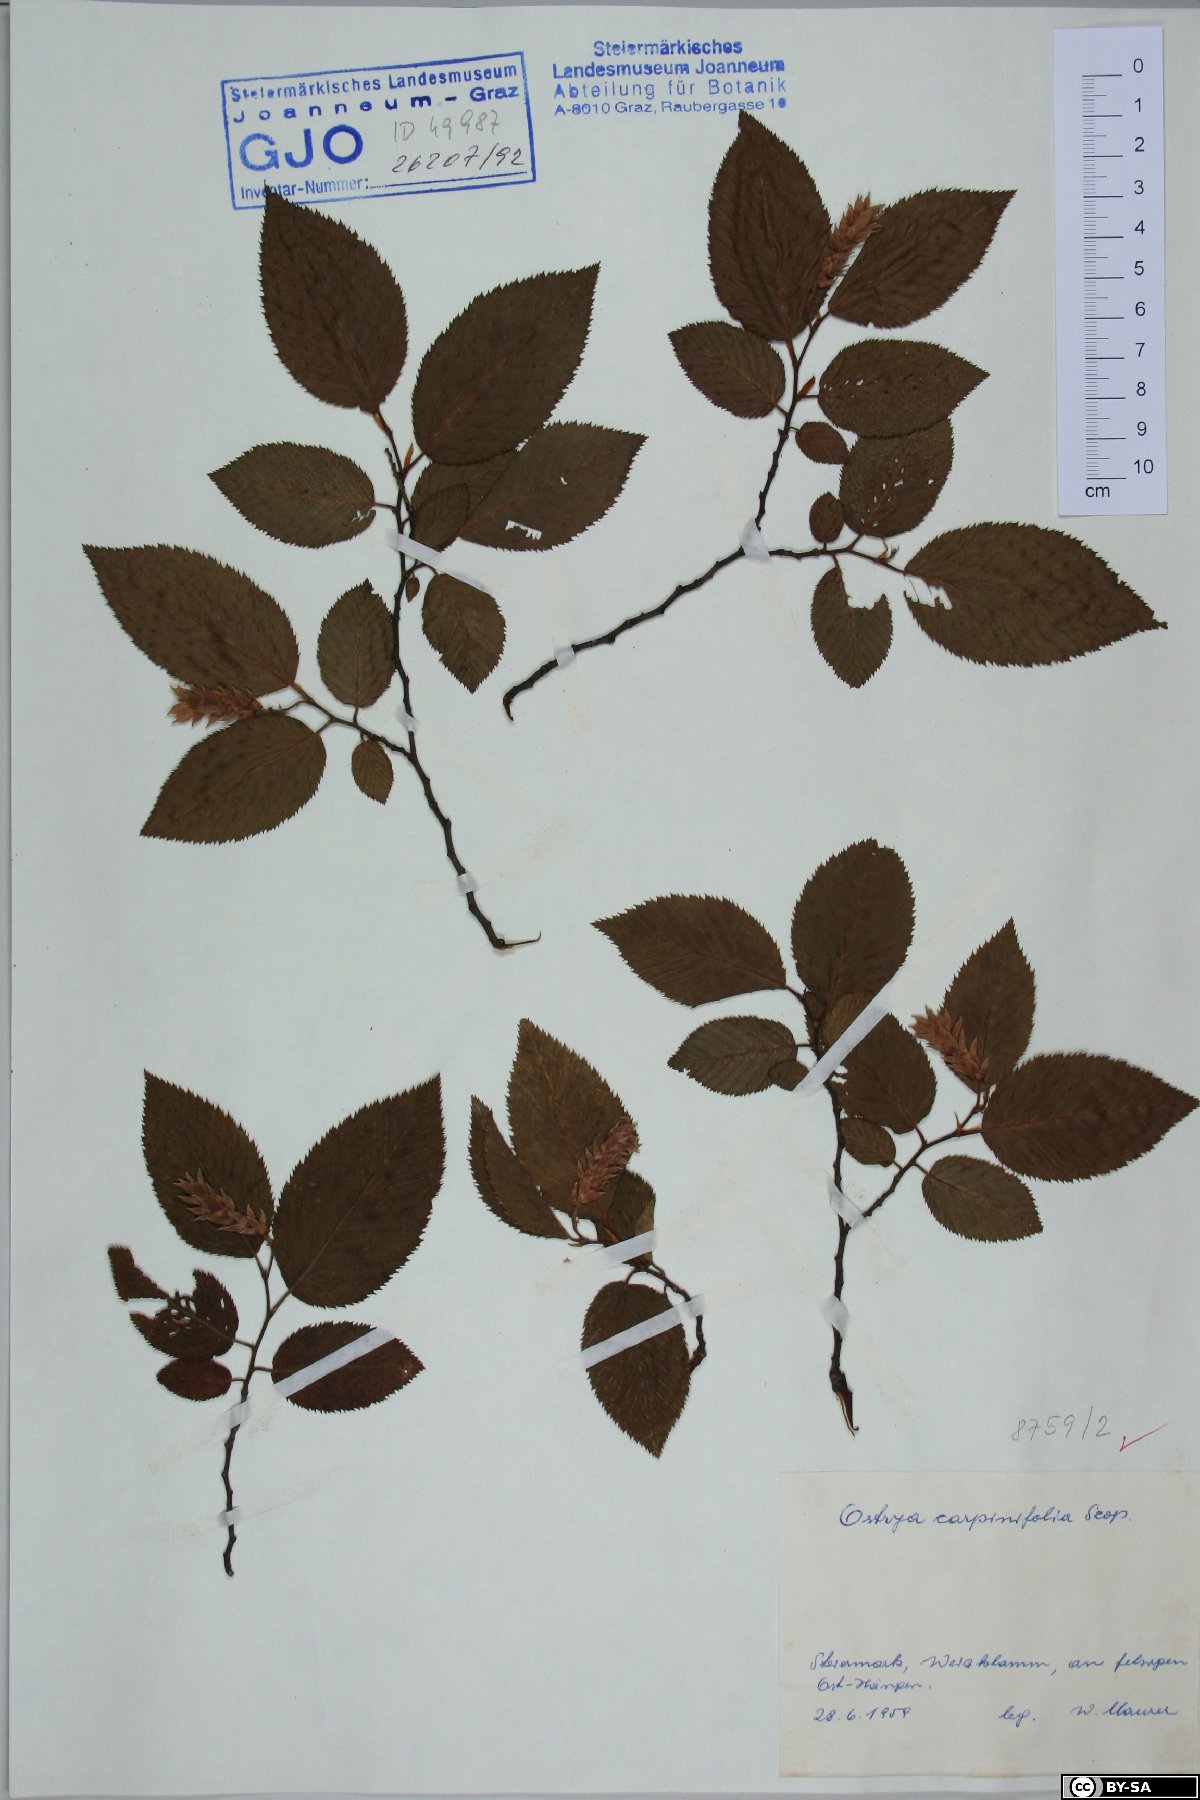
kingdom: Plantae
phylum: Tracheophyta
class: Magnoliopsida
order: Fagales
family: Betulaceae
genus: Ostrya
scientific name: Ostrya carpinifolia
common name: European hop-hornbeam
